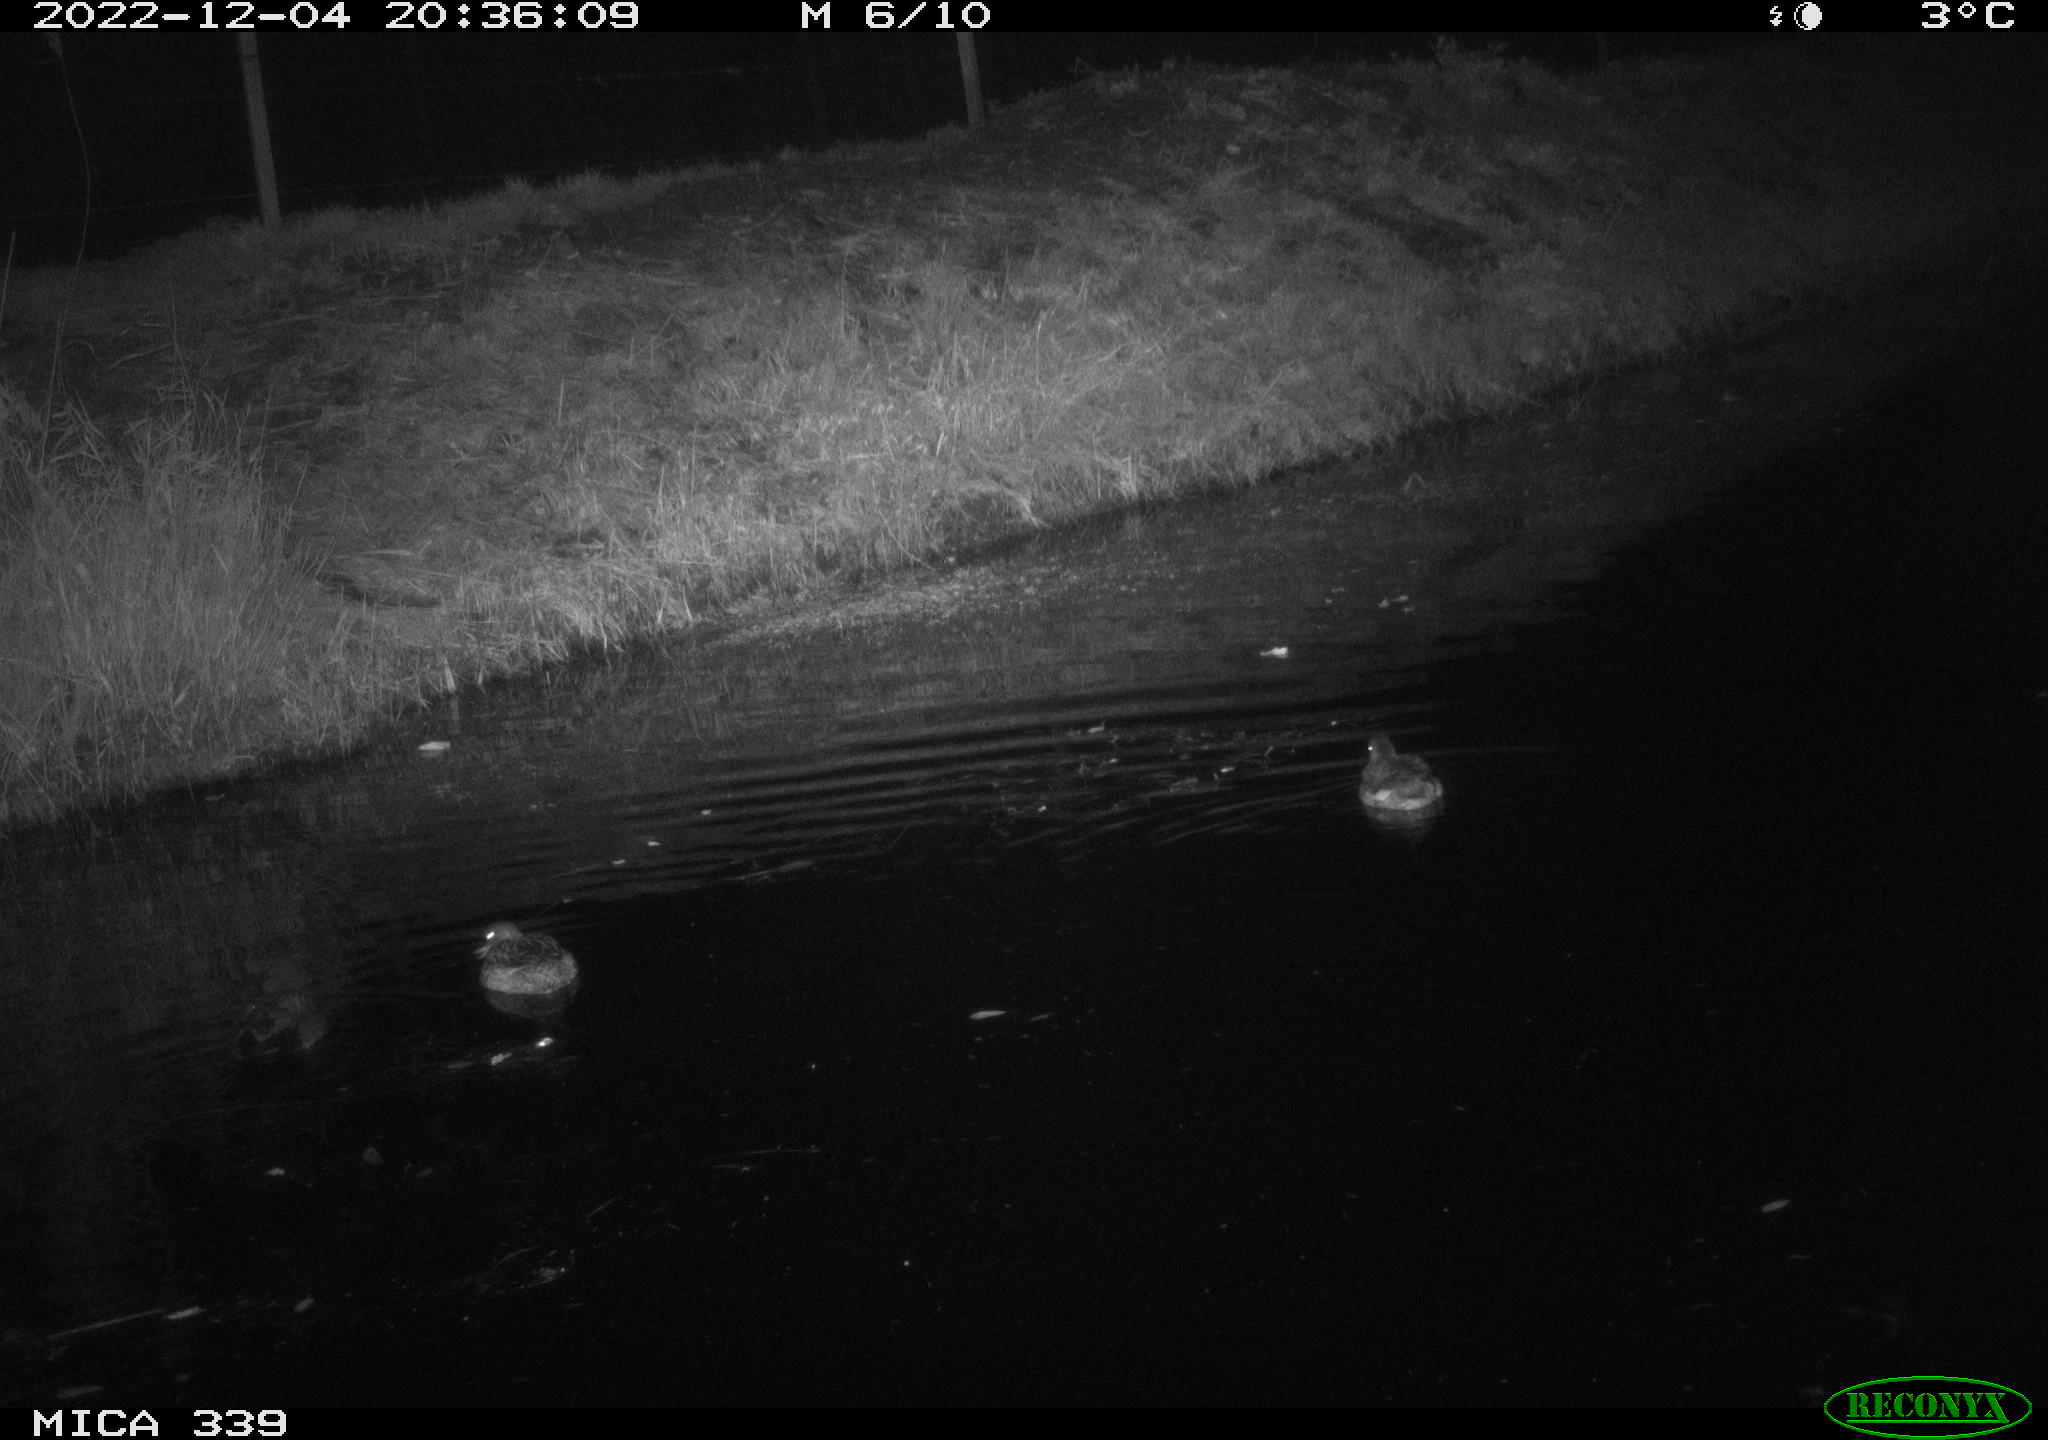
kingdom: Animalia
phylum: Chordata
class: Aves
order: Anseriformes
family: Anatidae
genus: Anas
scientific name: Anas
